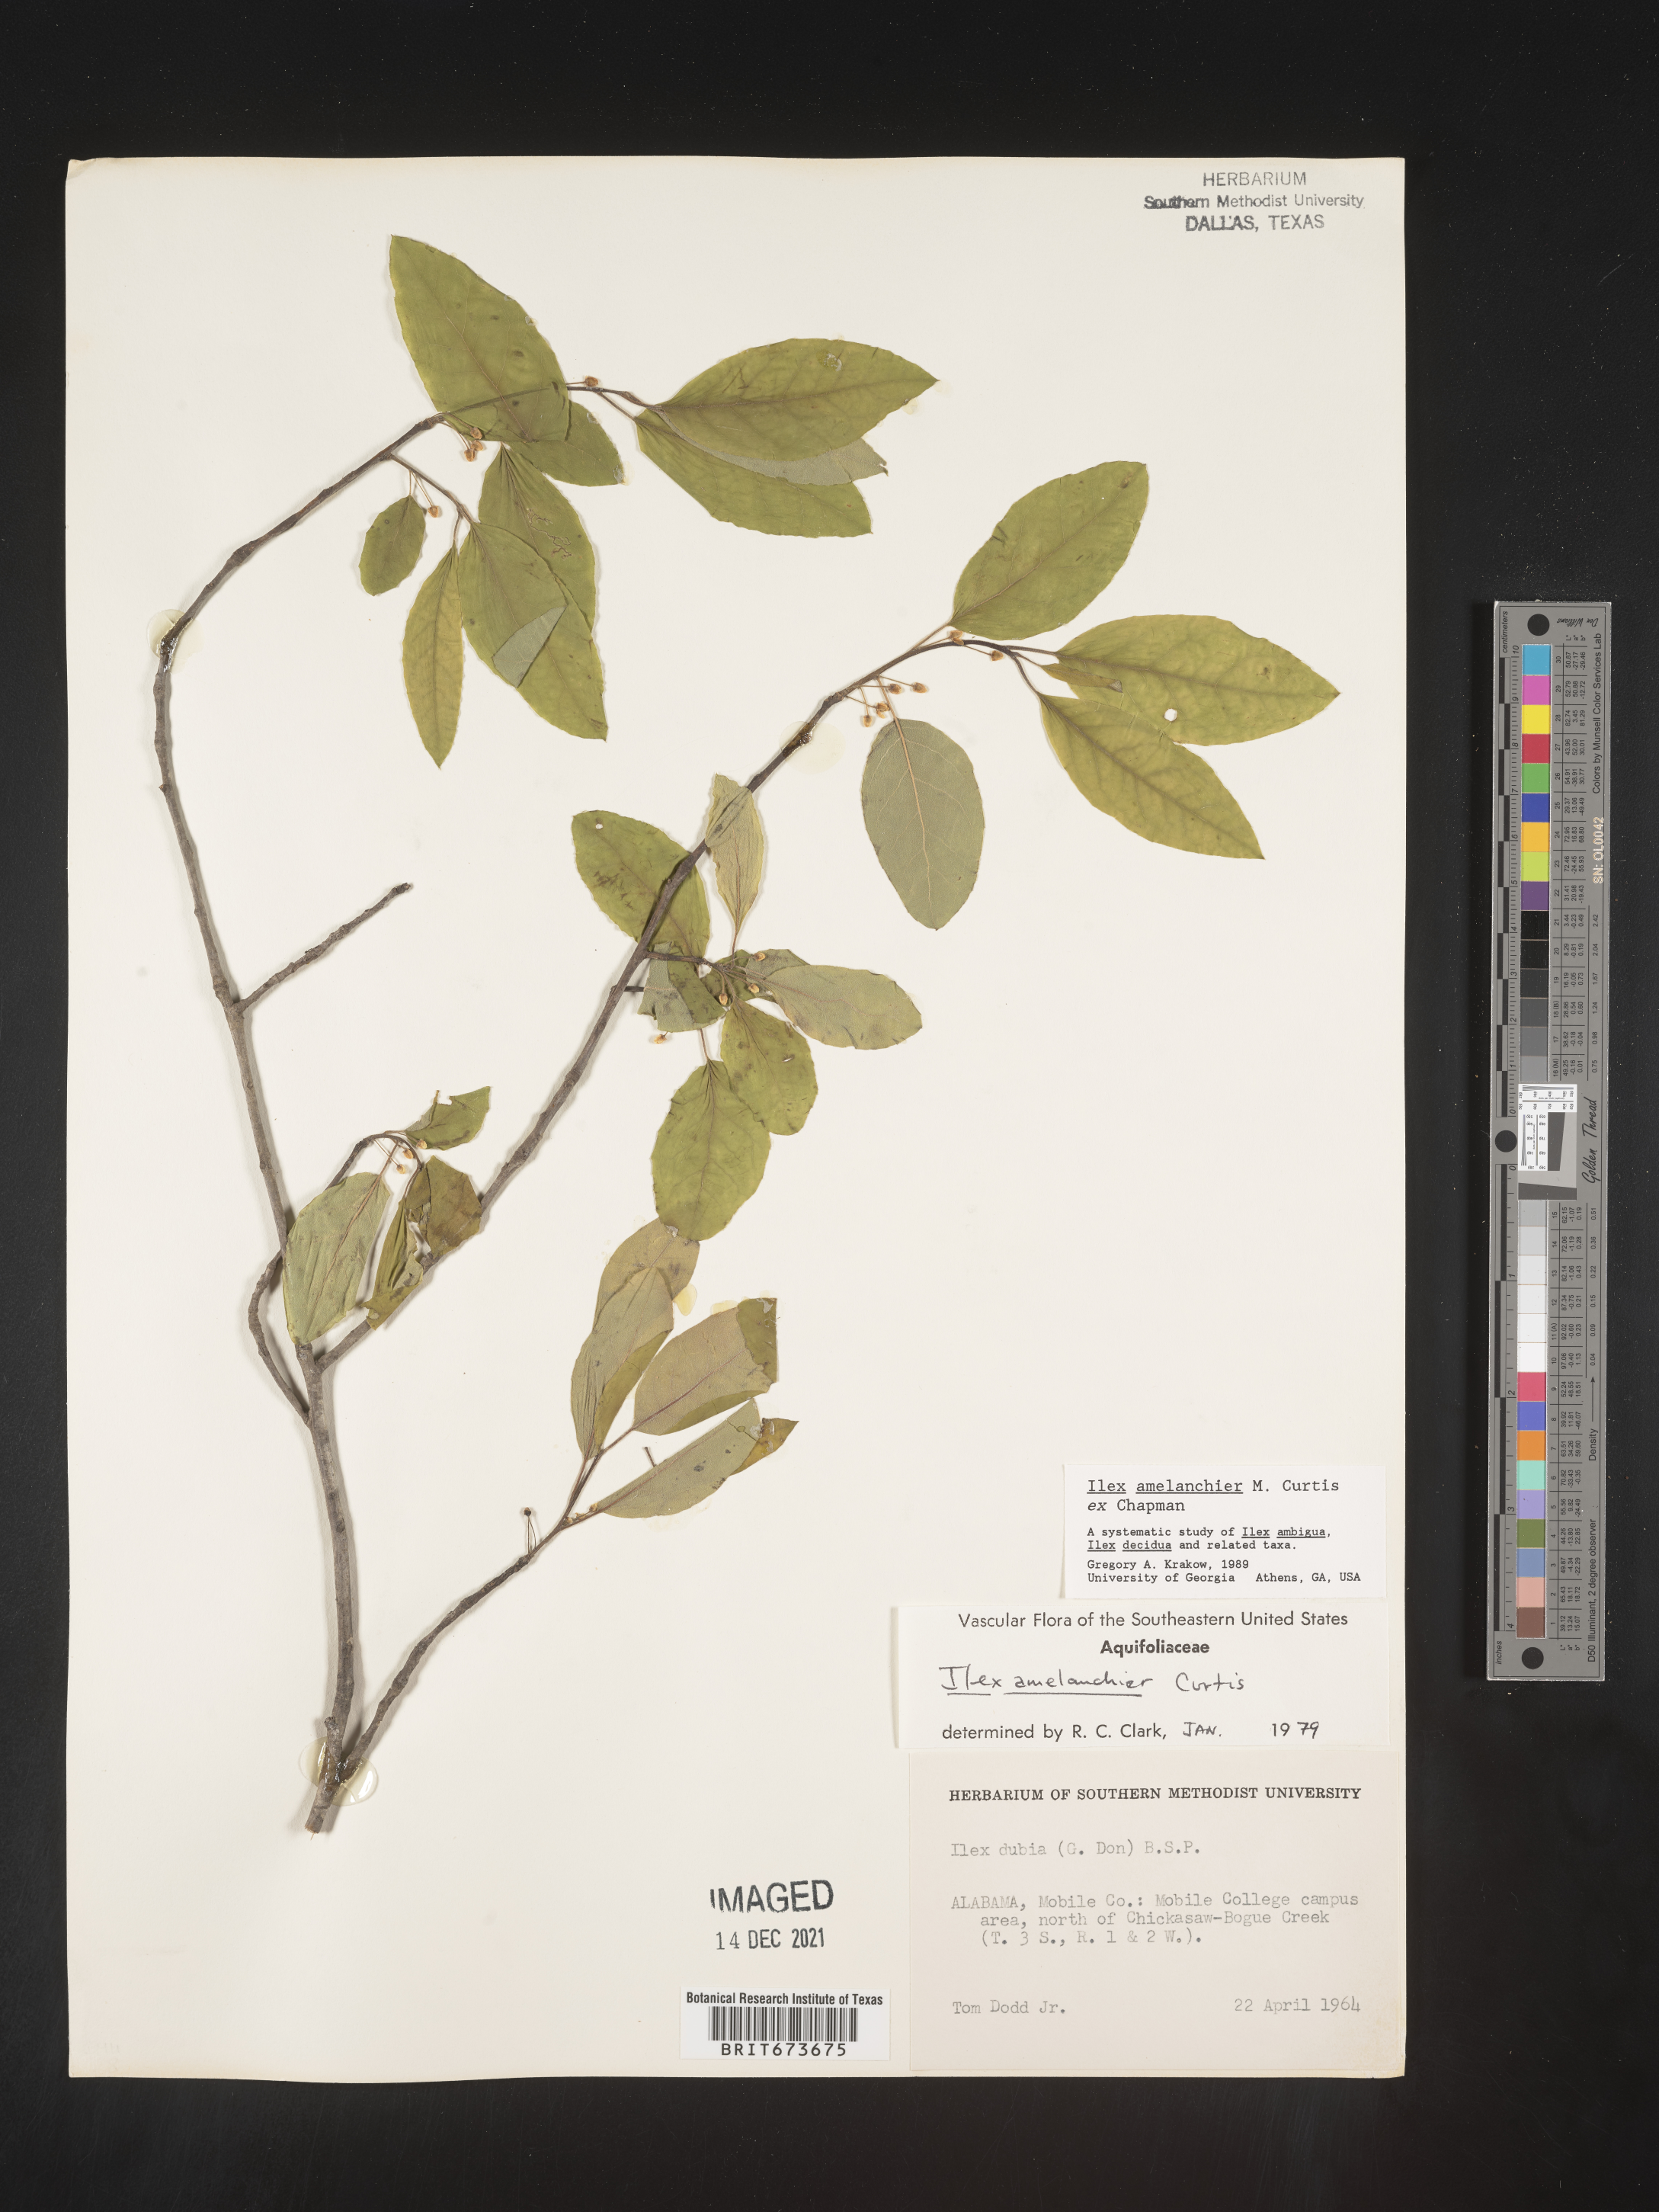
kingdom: Plantae
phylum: Tracheophyta
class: Magnoliopsida
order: Aquifoliales
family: Aquifoliaceae
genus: Ilex
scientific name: Ilex amelanchier
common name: Sarvis holly
